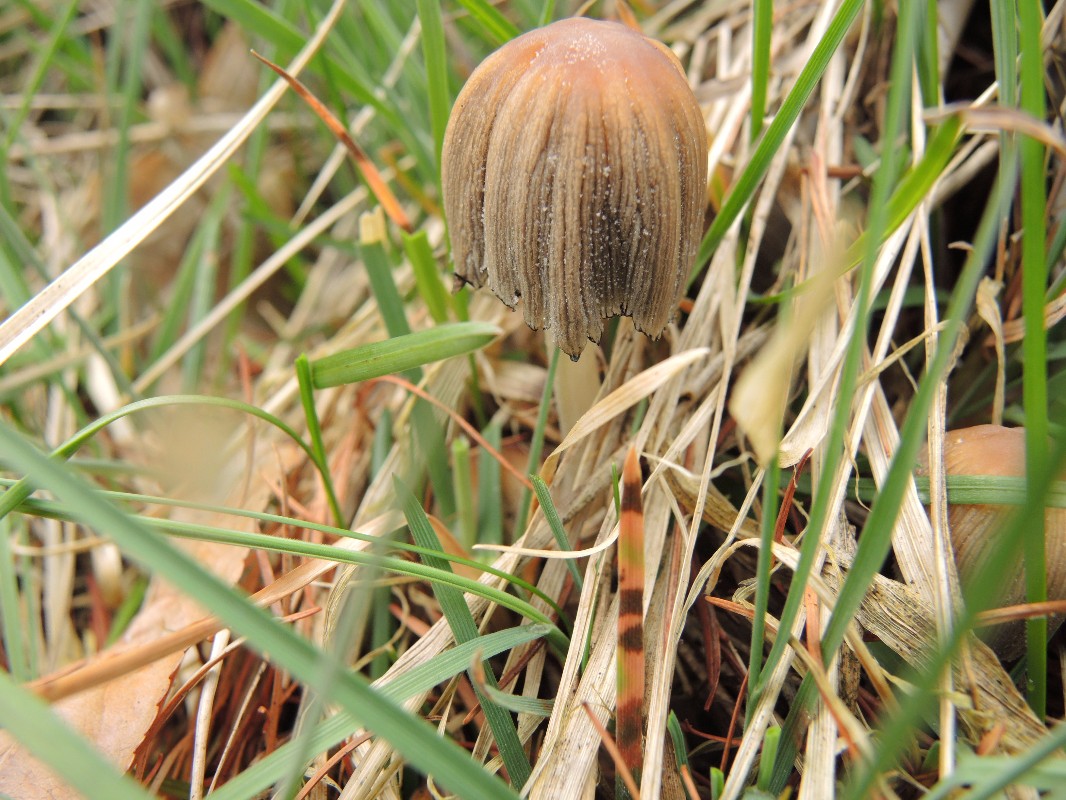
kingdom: Fungi
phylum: Basidiomycota
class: Agaricomycetes
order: Agaricales
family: Psathyrellaceae
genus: Coprinellus
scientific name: Coprinellus micaceus
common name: glimmer-blækhat
